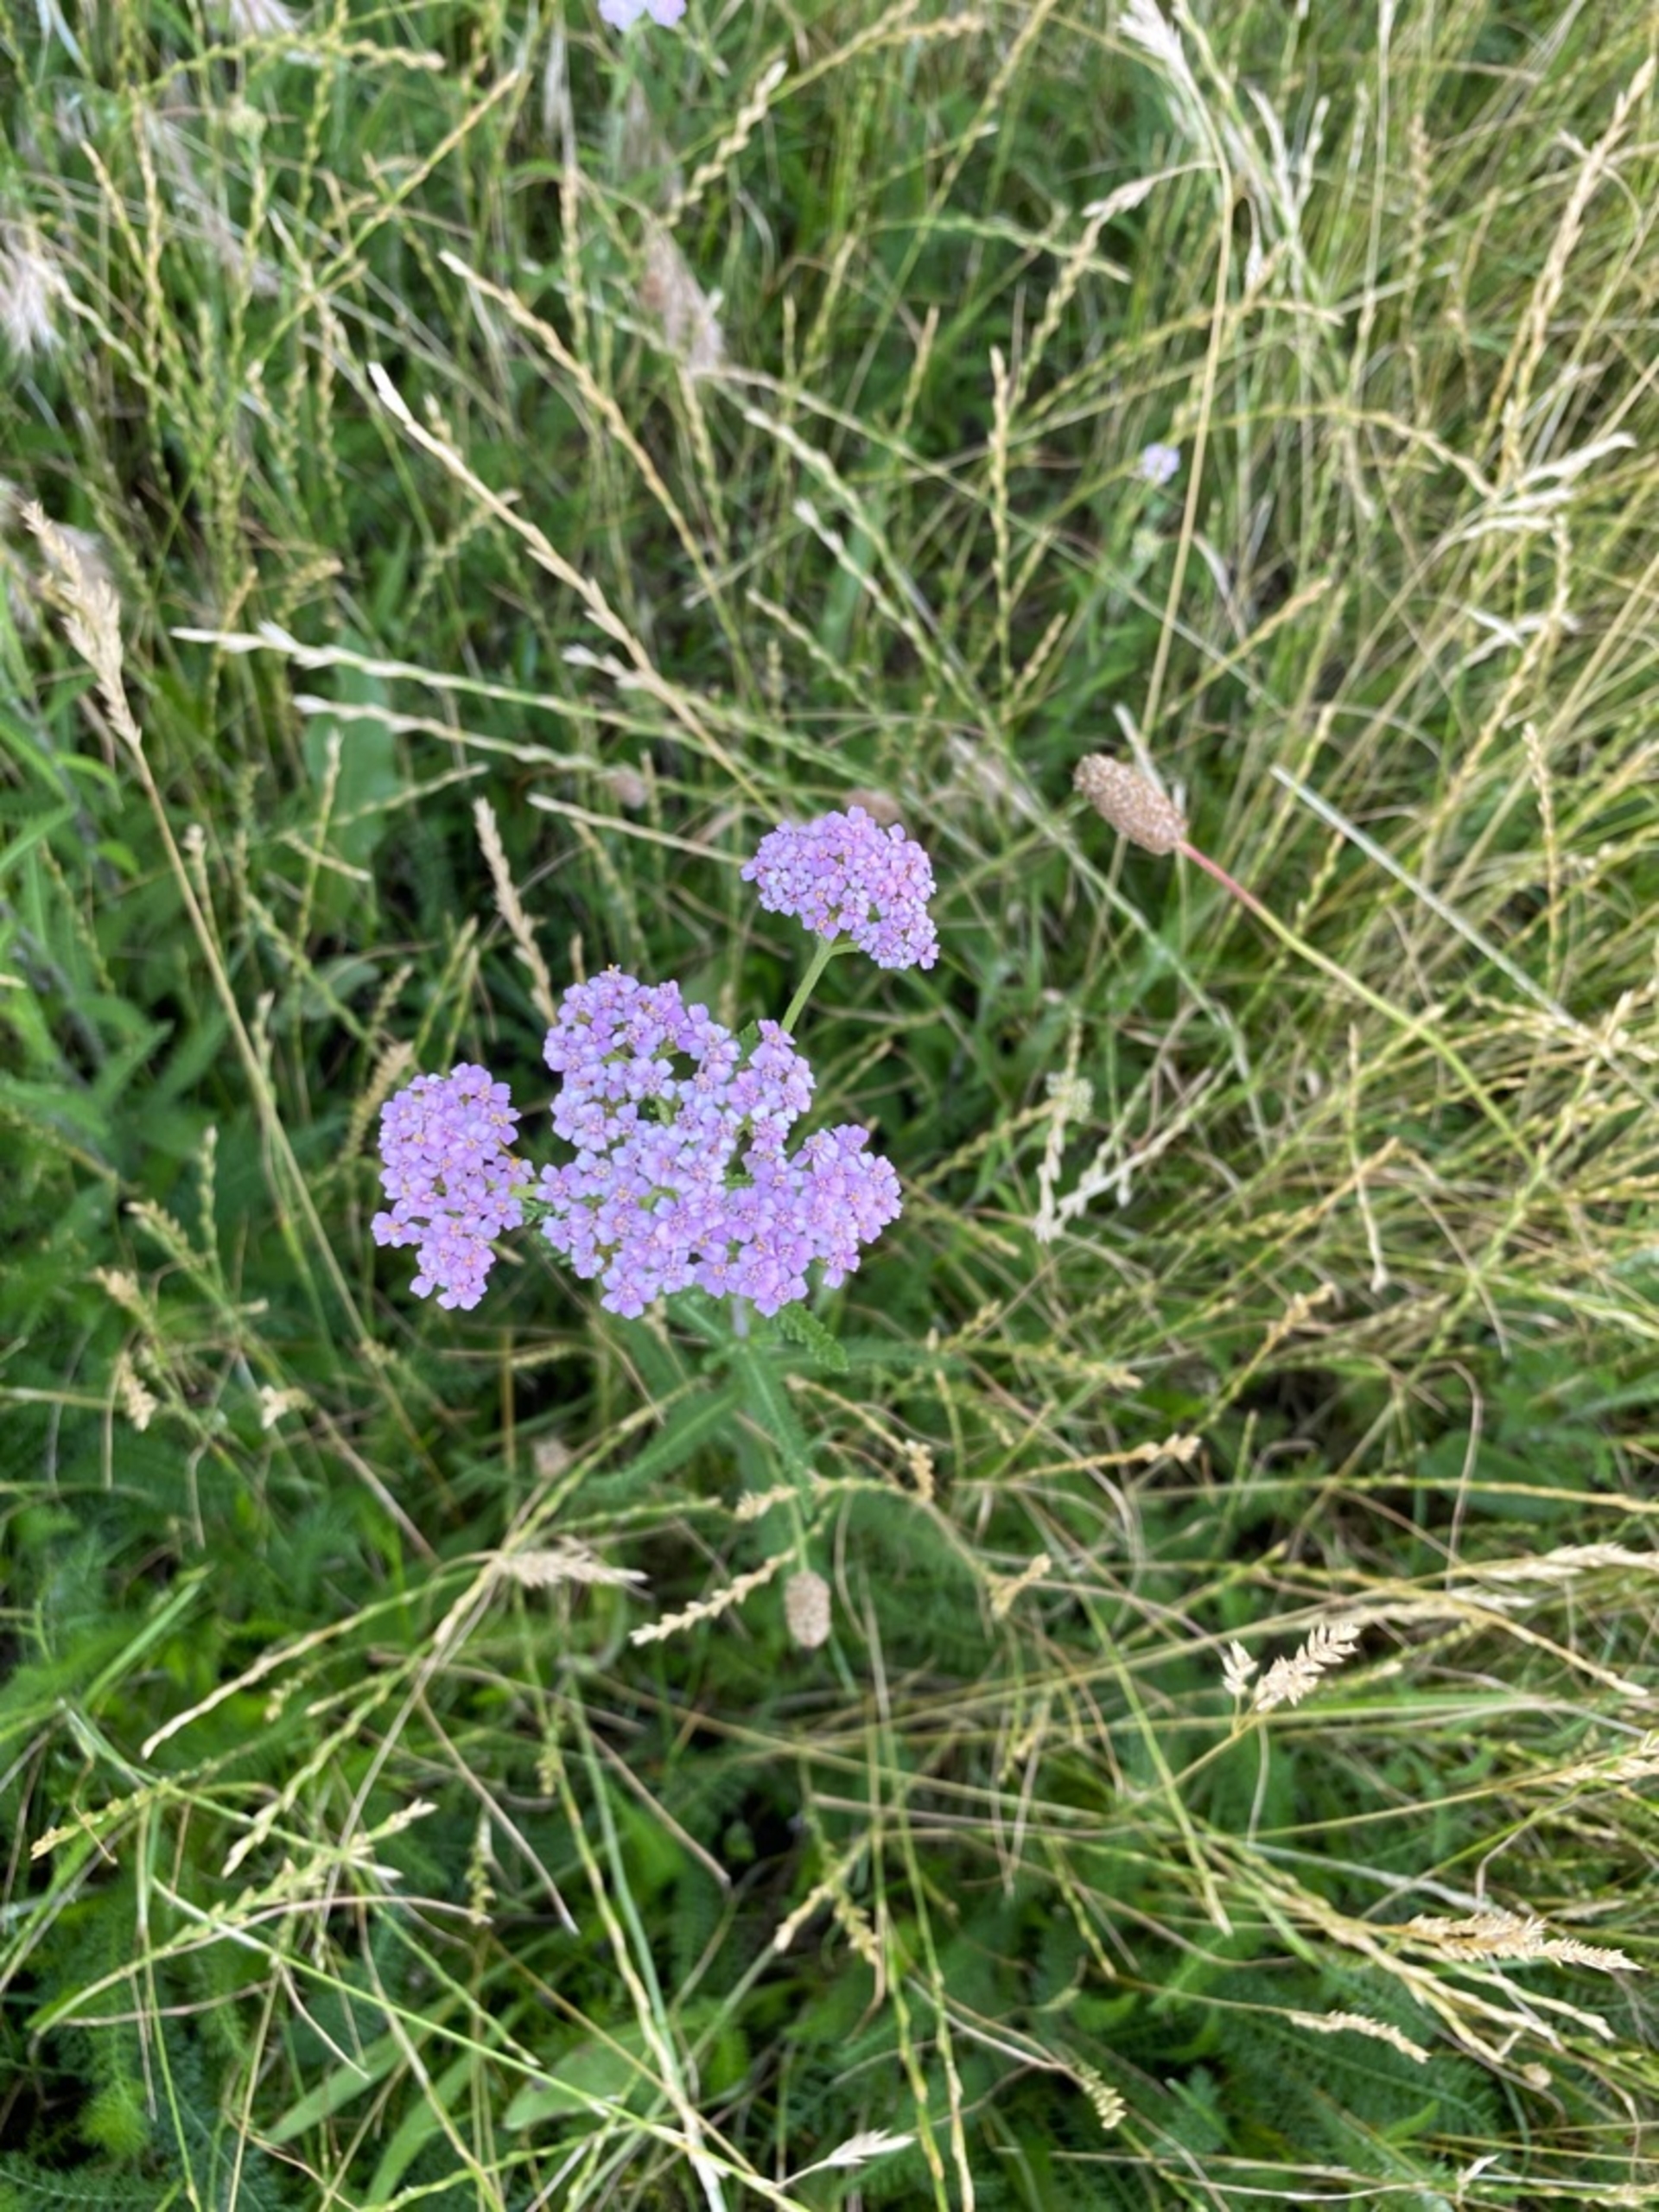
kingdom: Plantae
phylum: Tracheophyta
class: Magnoliopsida
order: Asterales
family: Asteraceae
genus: Achillea
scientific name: Achillea millefolium
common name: Almindelig røllike
